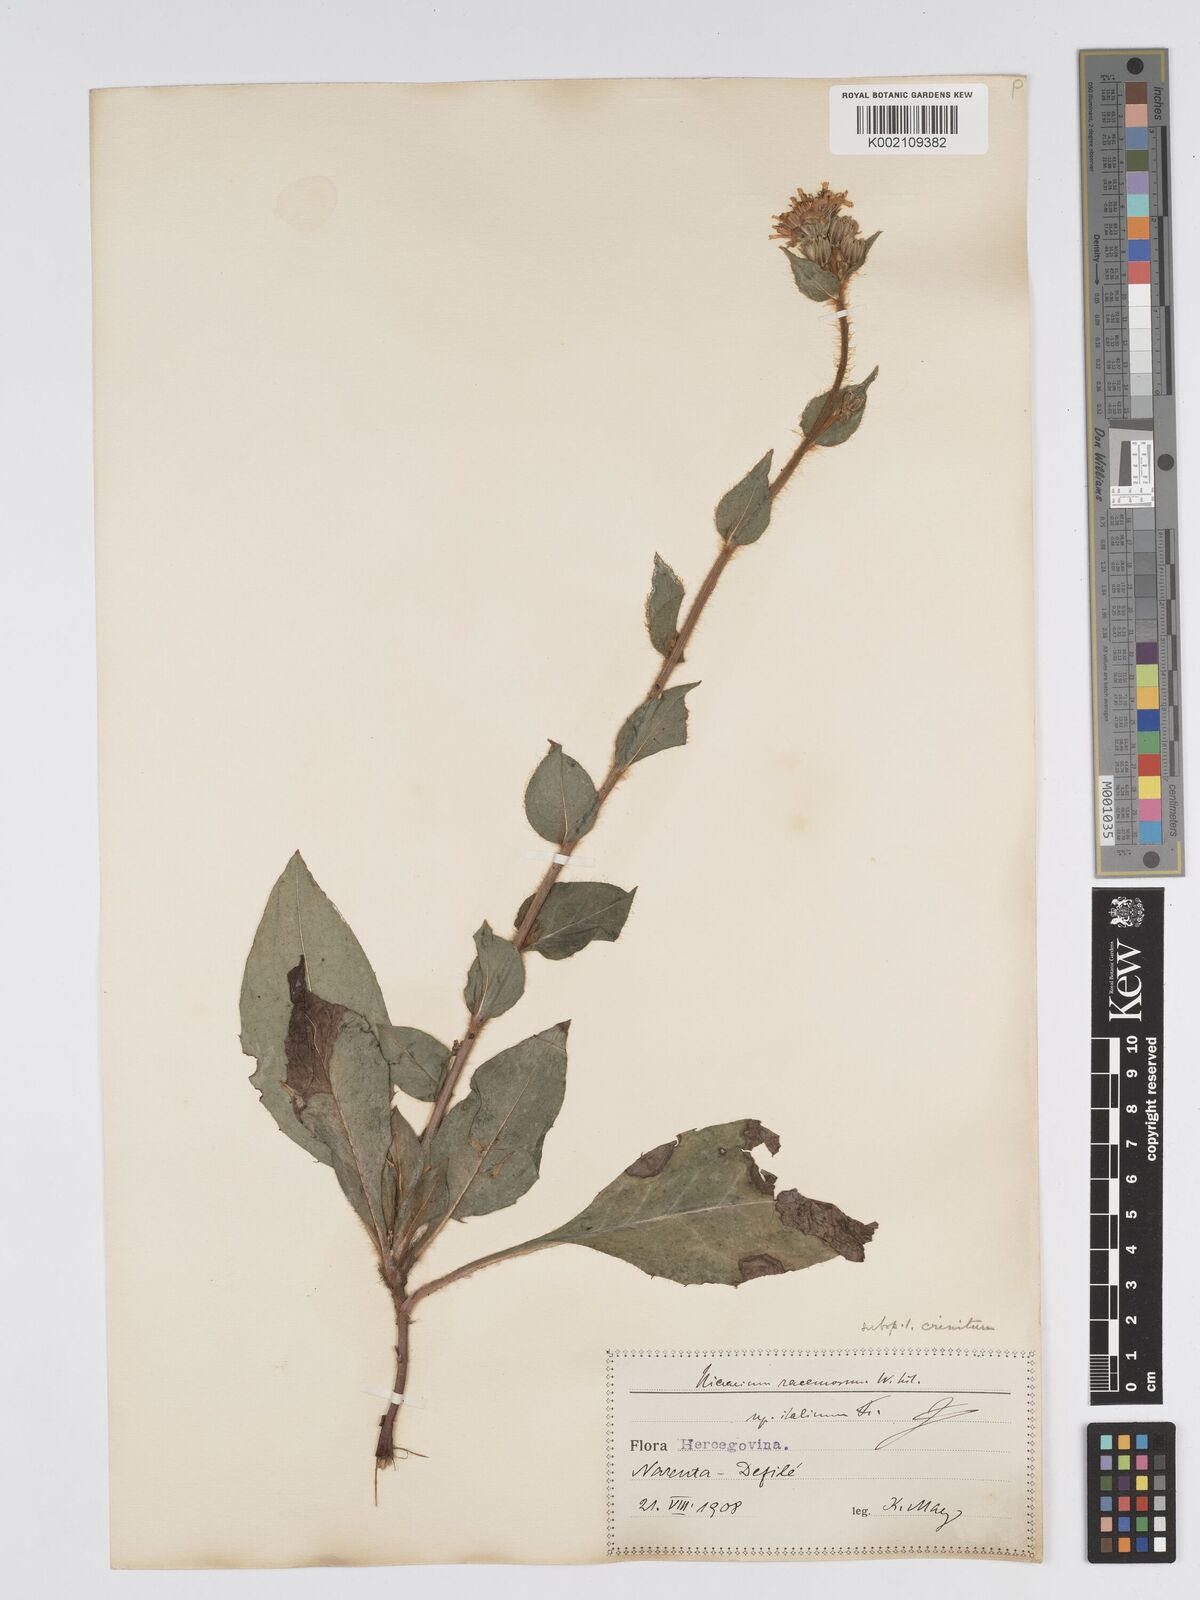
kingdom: Plantae
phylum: Tracheophyta
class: Magnoliopsida
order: Asterales
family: Asteraceae
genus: Hieracium
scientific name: Hieracium racemosum
